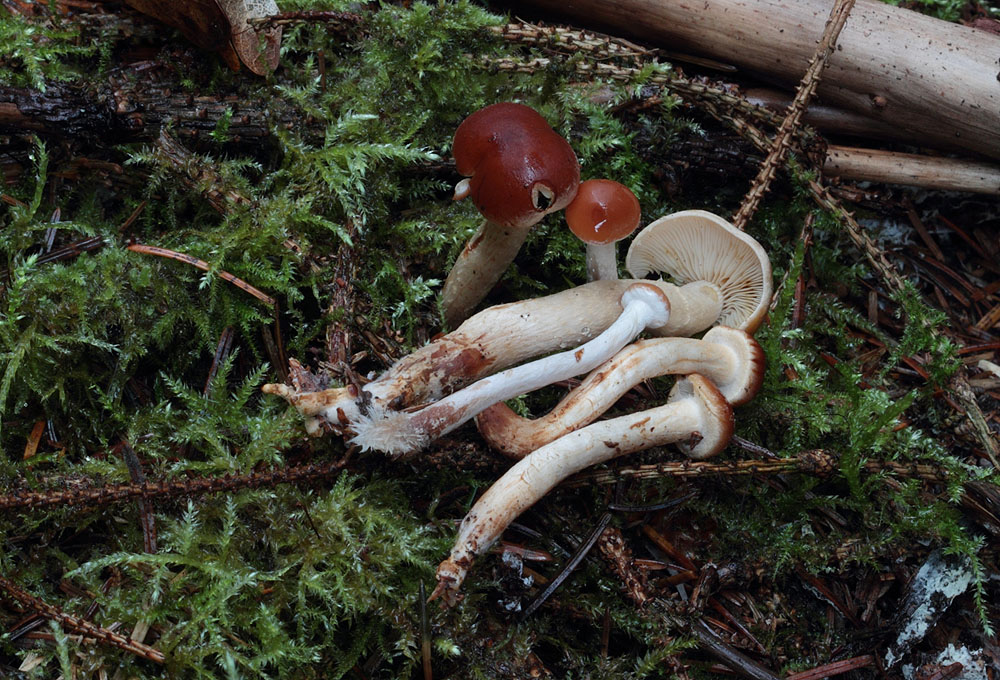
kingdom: Fungi
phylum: Basidiomycota
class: Agaricomycetes
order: Agaricales
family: Strophariaceae
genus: Hypholoma
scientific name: Hypholoma marginatum
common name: enlig svovlhat
